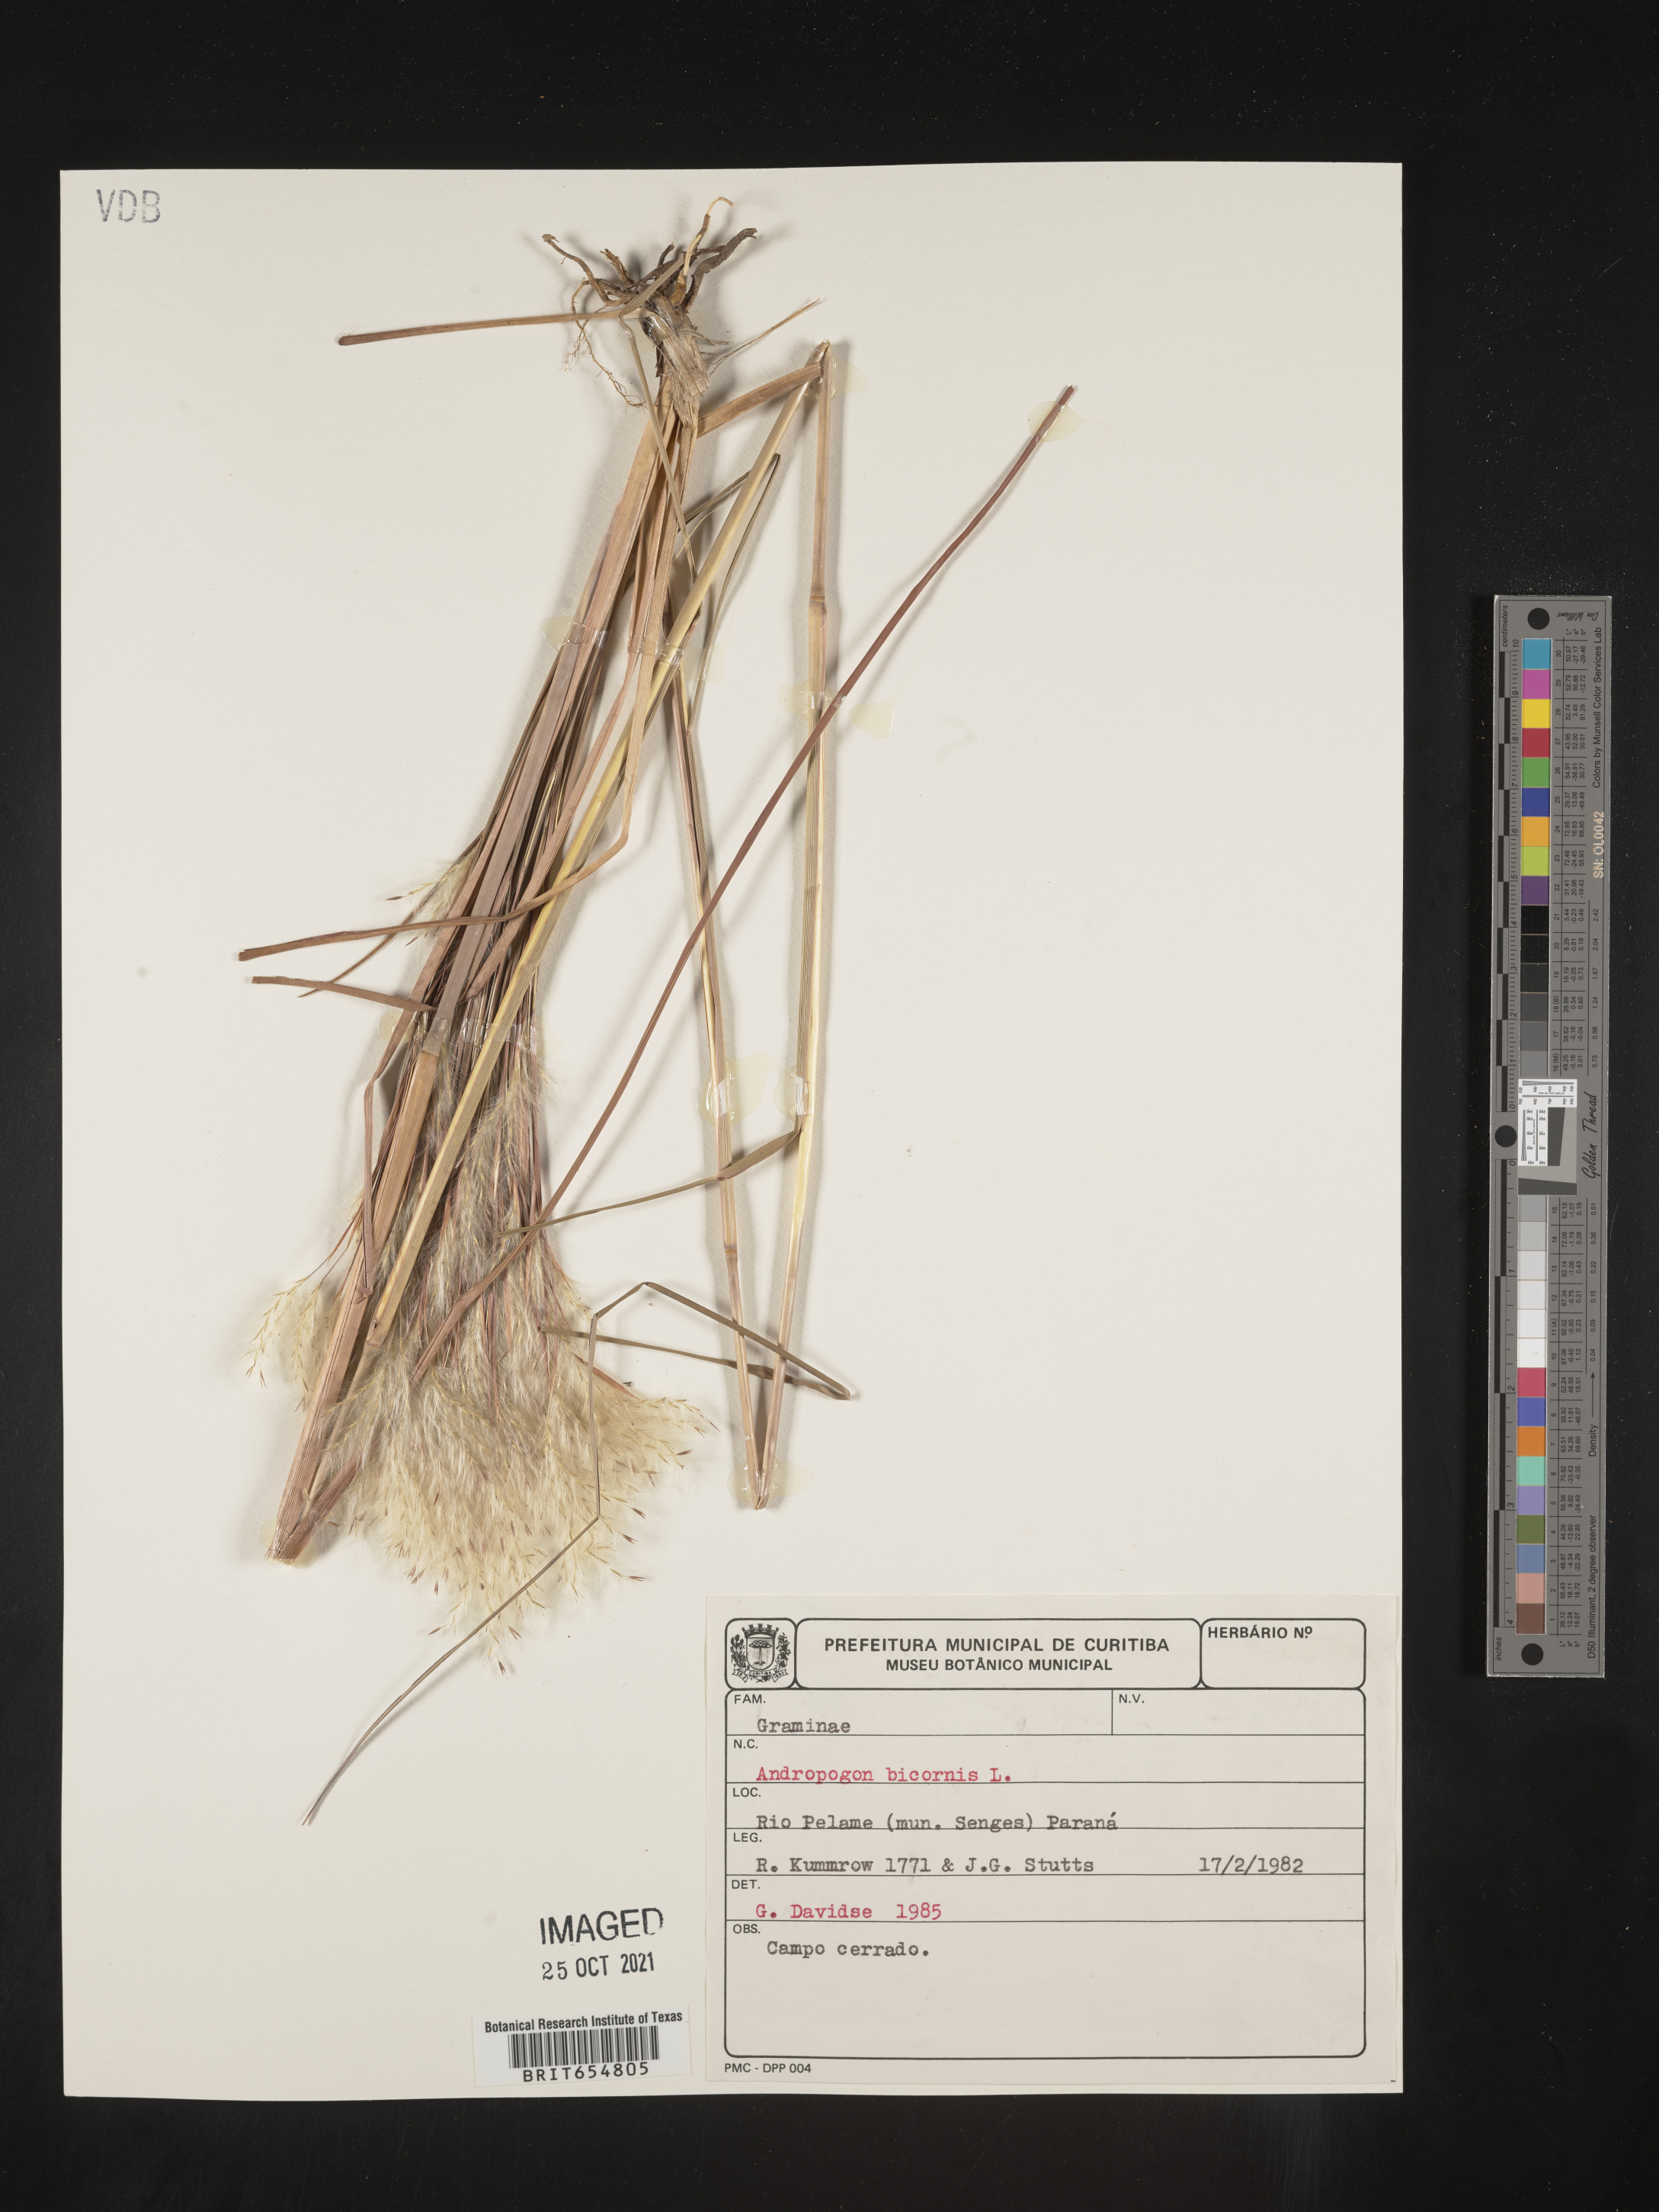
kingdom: Plantae
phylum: Tracheophyta
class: Liliopsida
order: Poales
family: Poaceae
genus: Andropogon
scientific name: Andropogon
